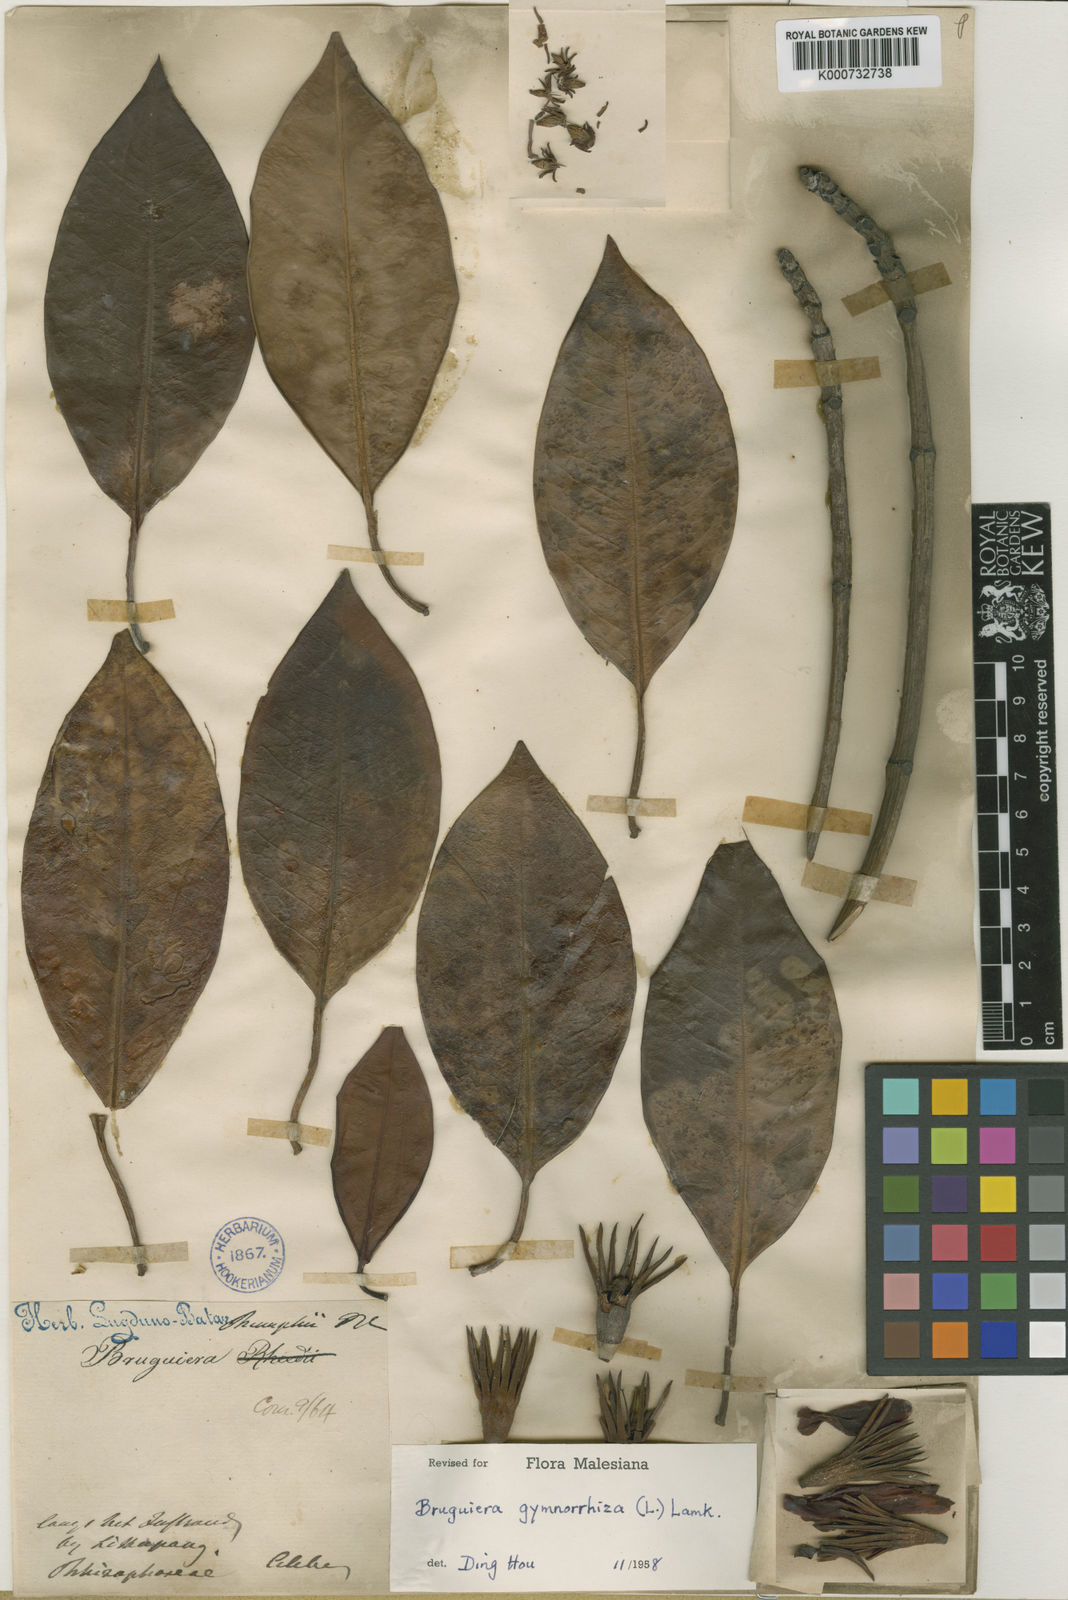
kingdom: Plantae
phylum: Tracheophyta
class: Magnoliopsida
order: Malpighiales
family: Rhizophoraceae
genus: Bruguiera
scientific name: Bruguiera
